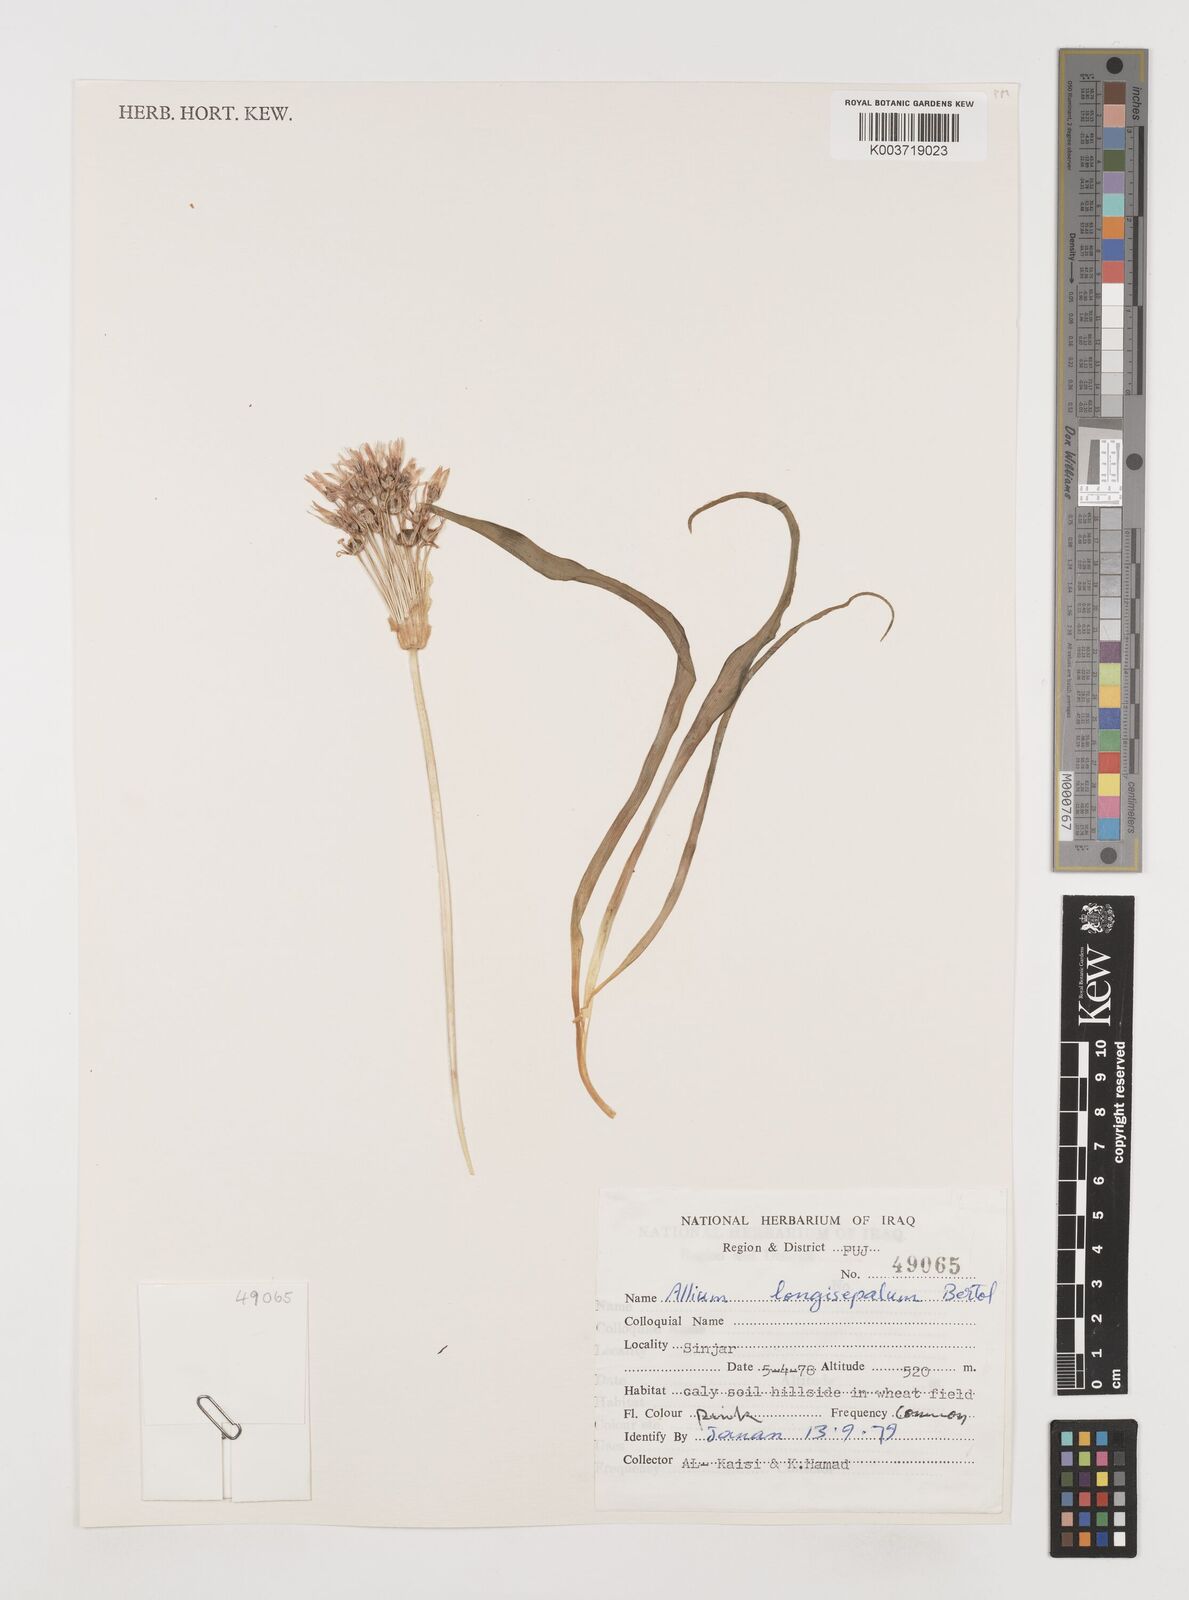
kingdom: Plantae
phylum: Tracheophyta
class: Liliopsida
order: Asparagales
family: Amaryllidaceae
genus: Allium
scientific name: Allium longisepalum
